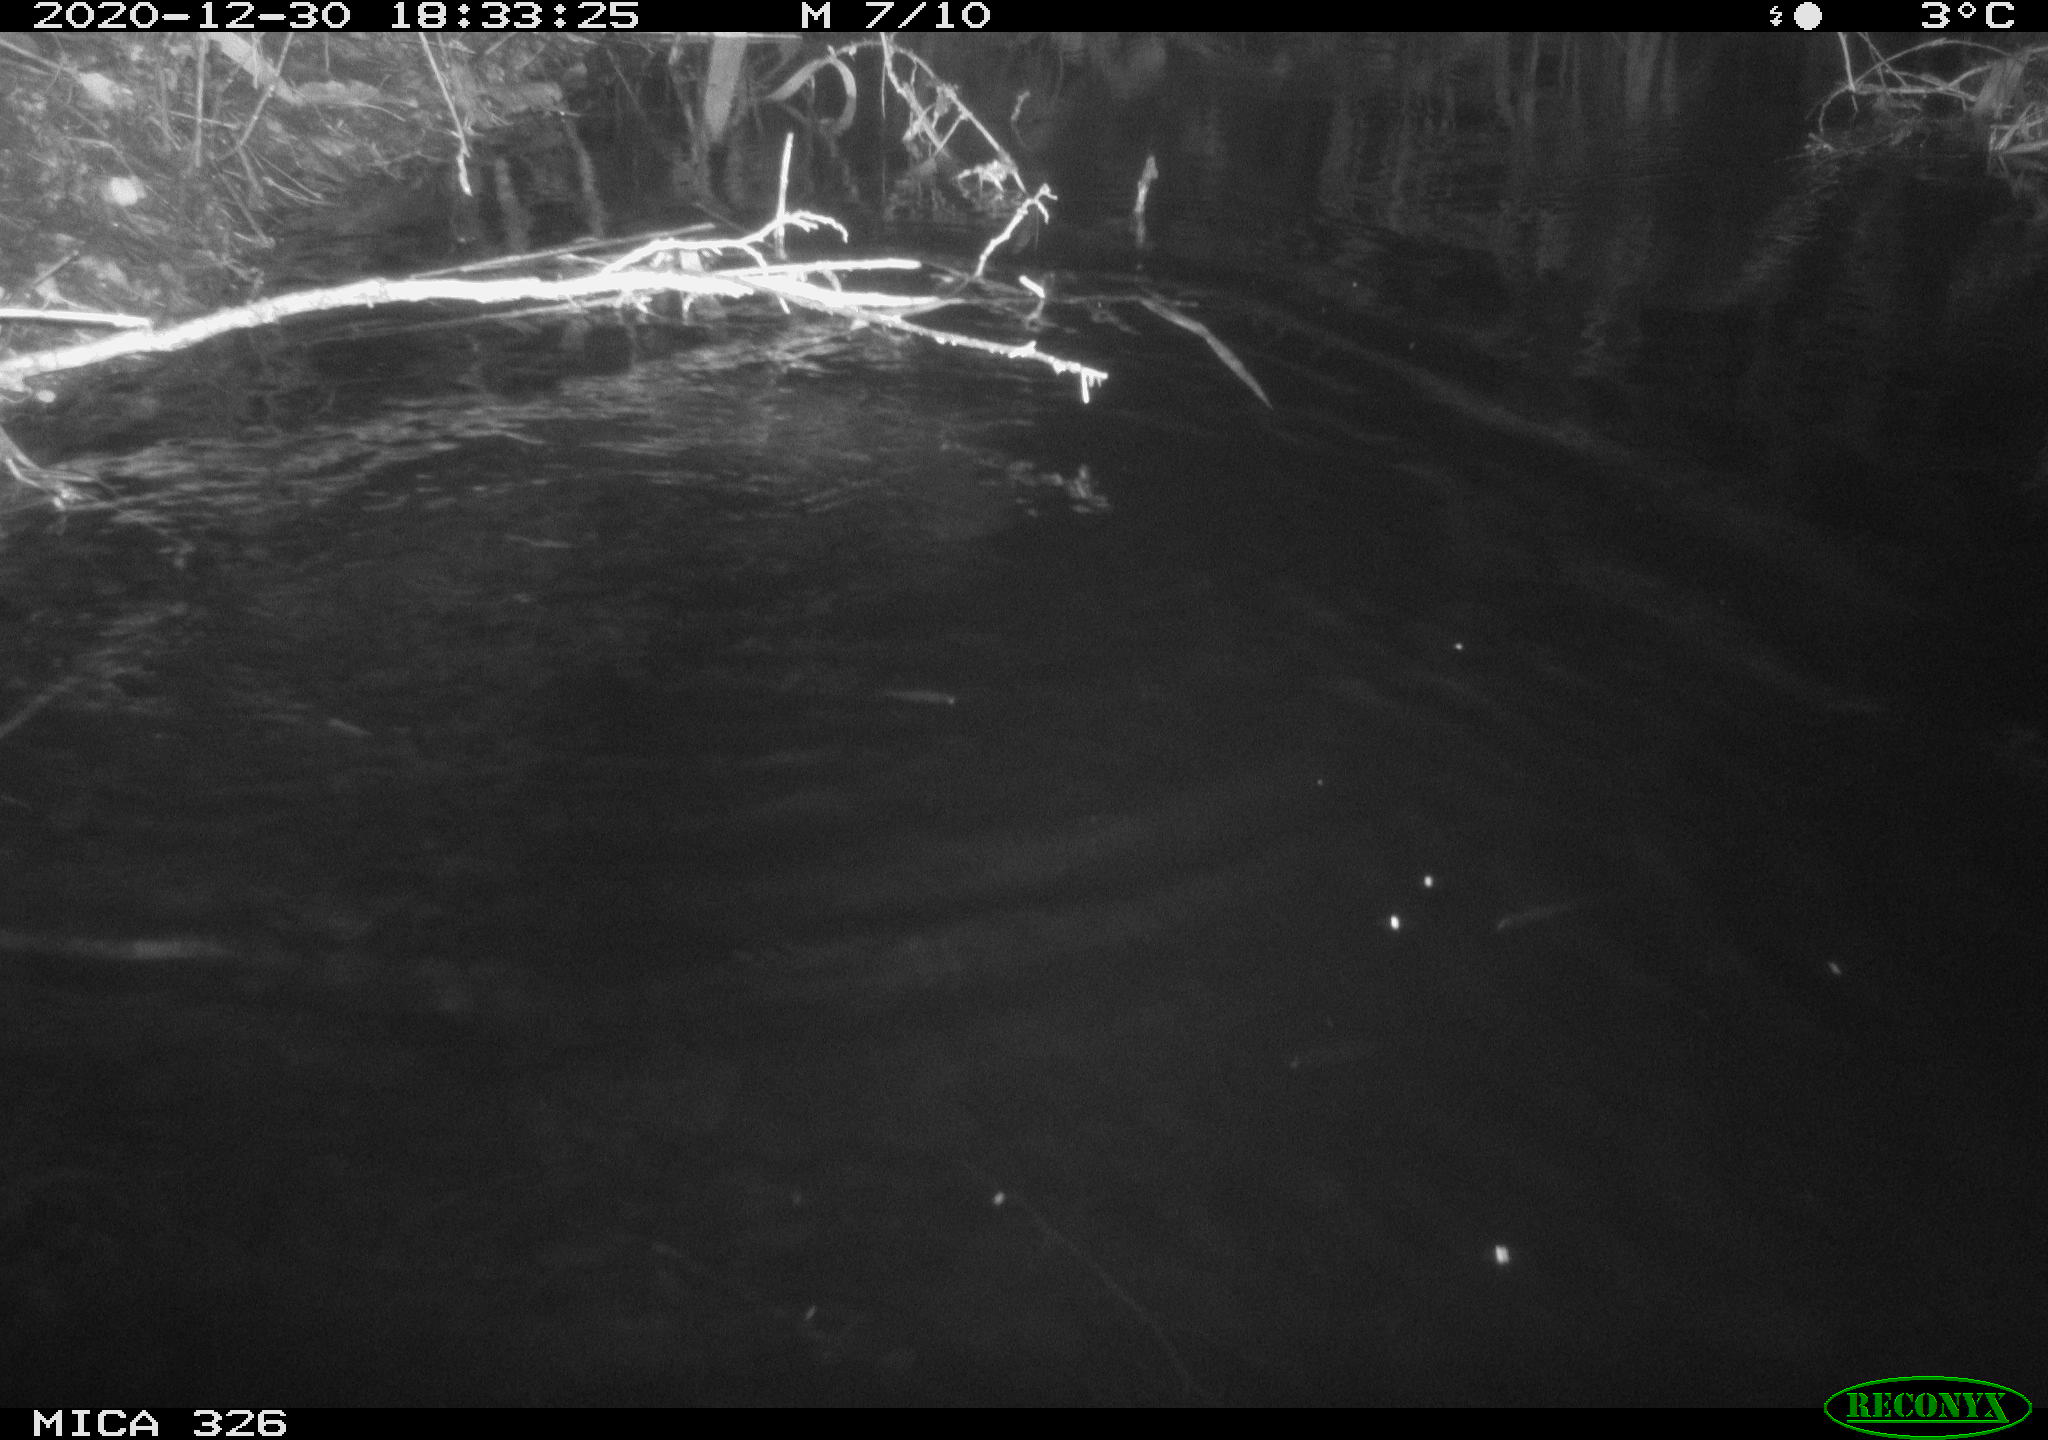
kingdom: Animalia
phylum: Chordata
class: Mammalia
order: Rodentia
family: Cricetidae
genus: Ondatra
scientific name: Ondatra zibethicus
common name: Muskrat
